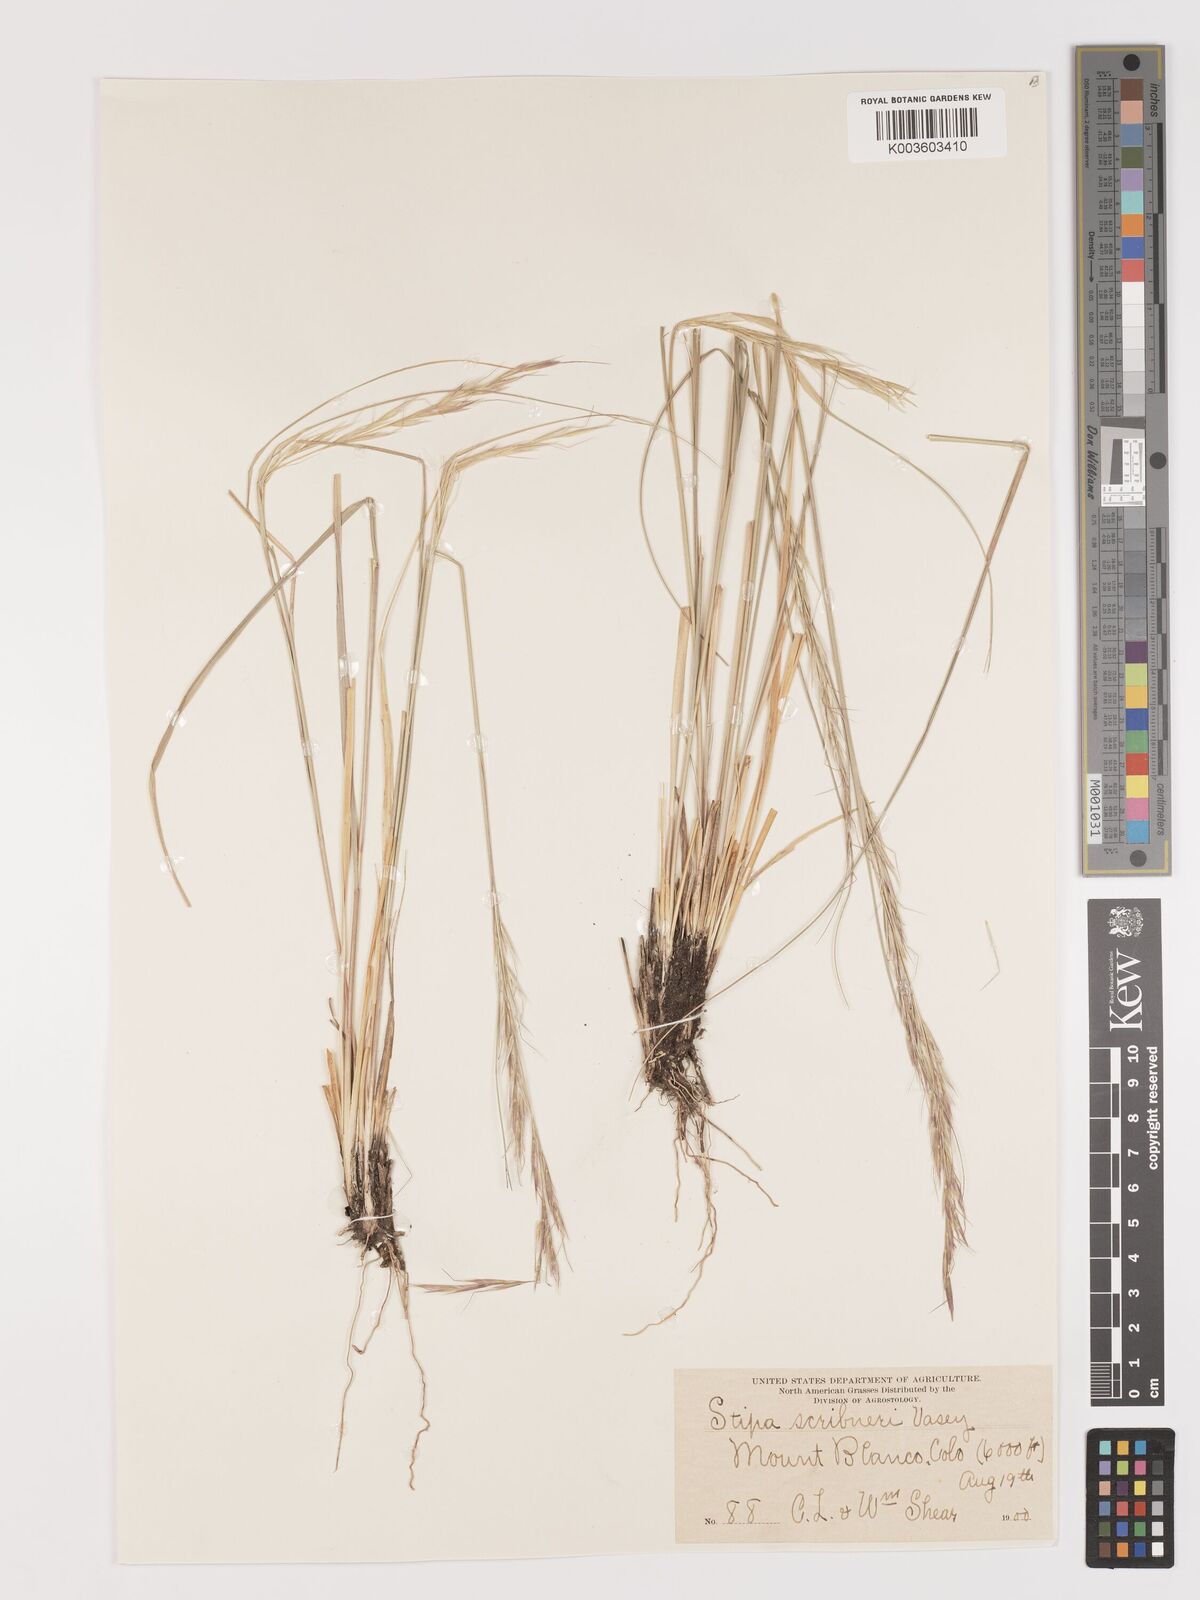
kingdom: Plantae
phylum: Tracheophyta
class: Liliopsida
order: Poales
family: Poaceae
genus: Eriocoma
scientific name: Eriocoma scribneri
